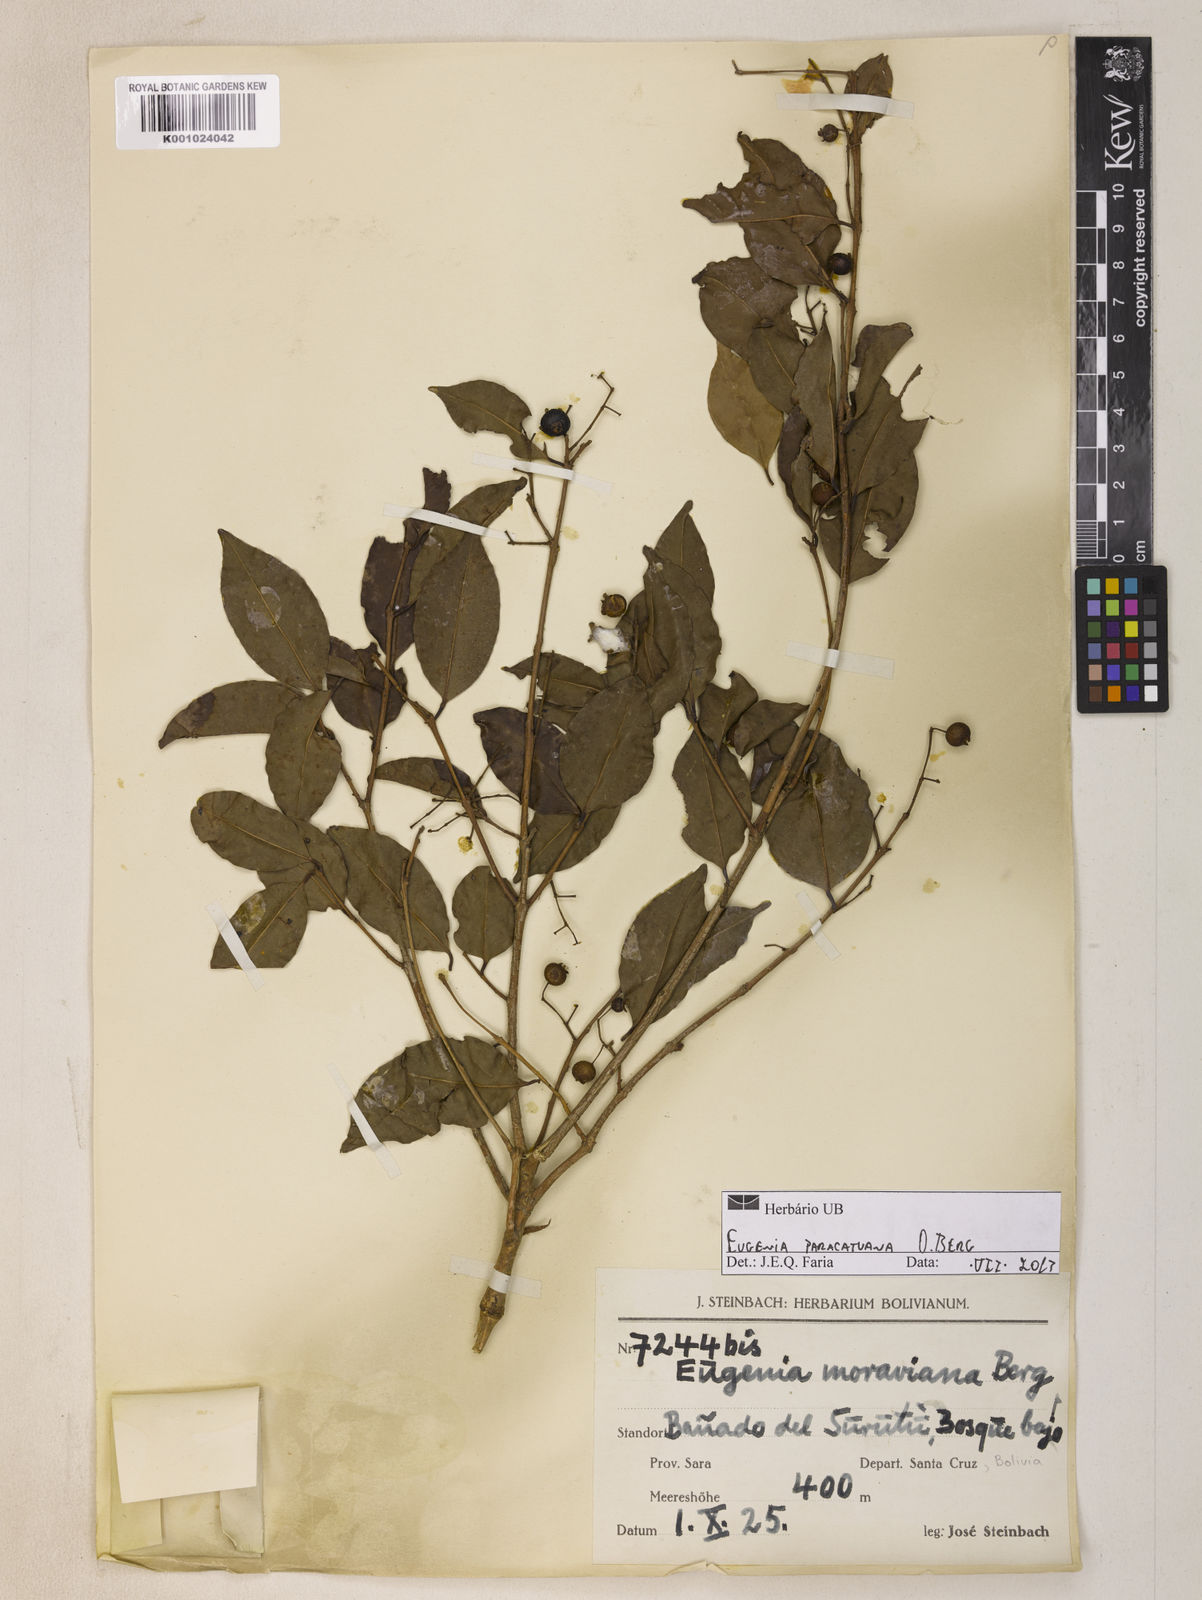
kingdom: Plantae
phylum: Tracheophyta
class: Magnoliopsida
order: Myrtales
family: Myrtaceae
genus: Eugenia
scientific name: Eugenia moraviana
